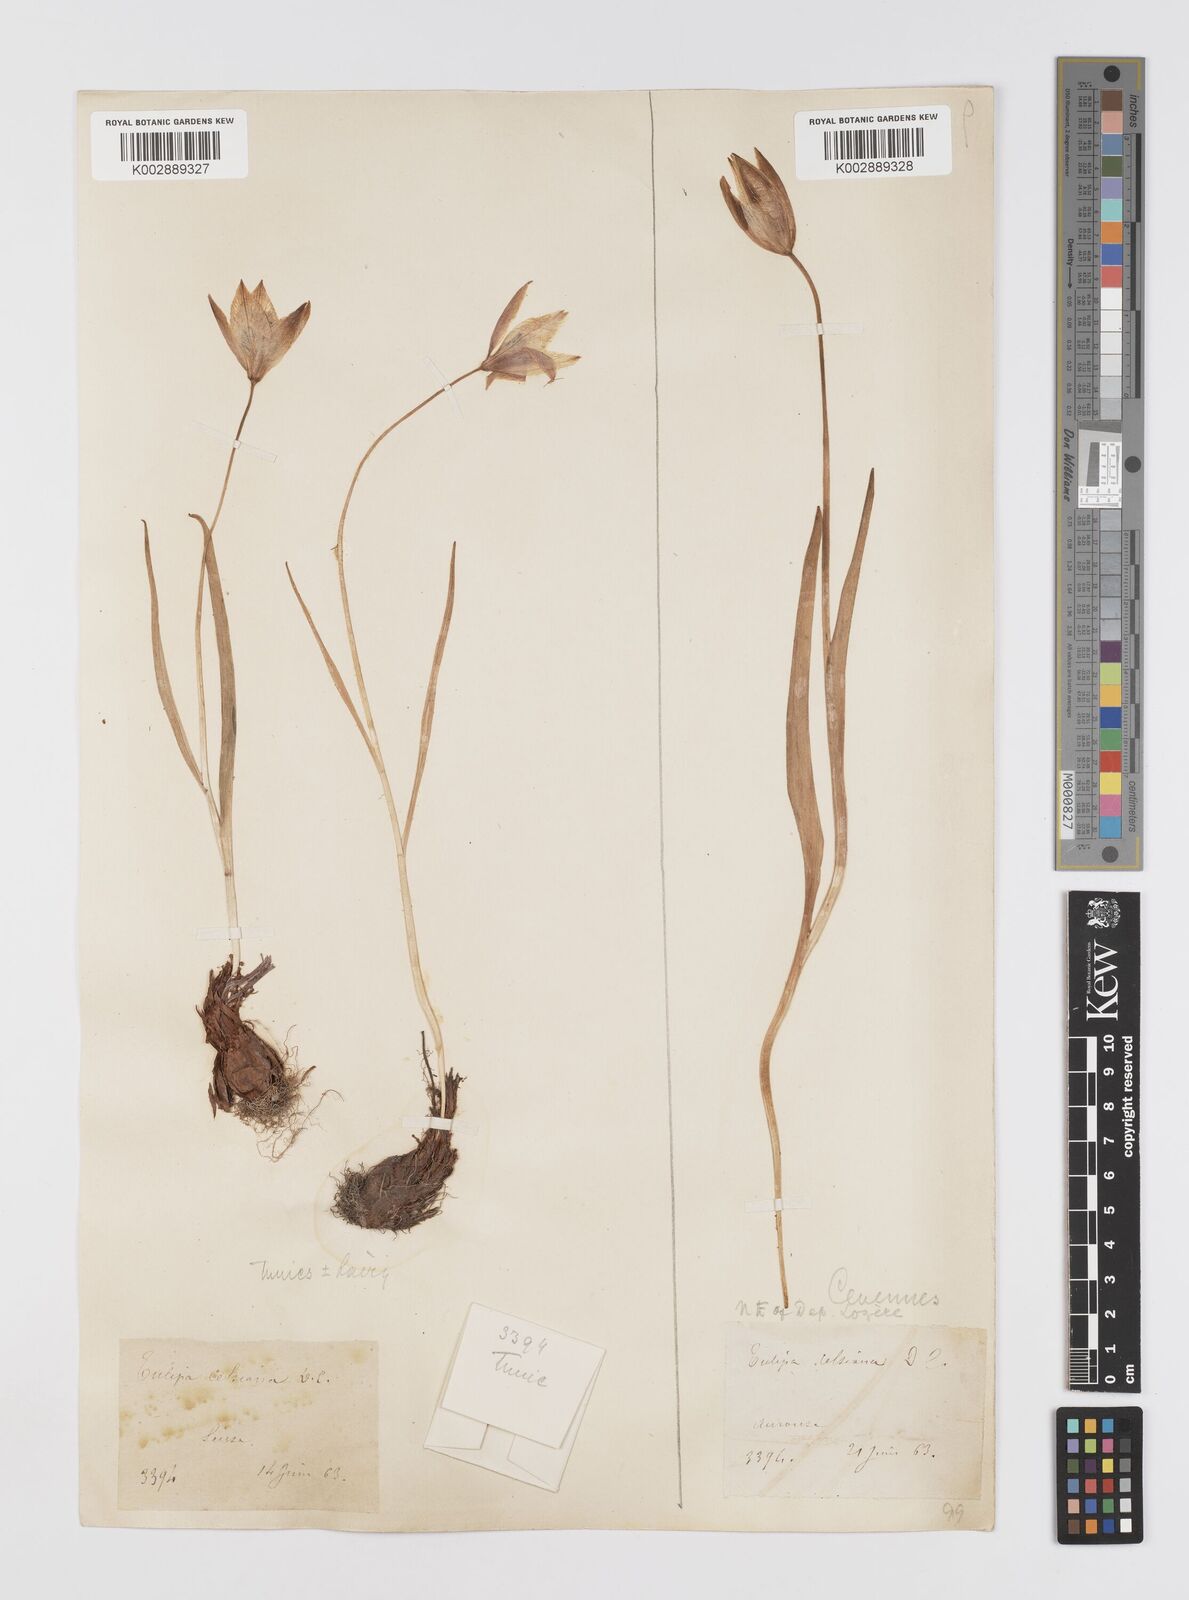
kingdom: Plantae
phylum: Tracheophyta
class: Liliopsida
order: Liliales
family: Liliaceae
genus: Tulipa
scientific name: Tulipa sylvestris
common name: Wild tulip
